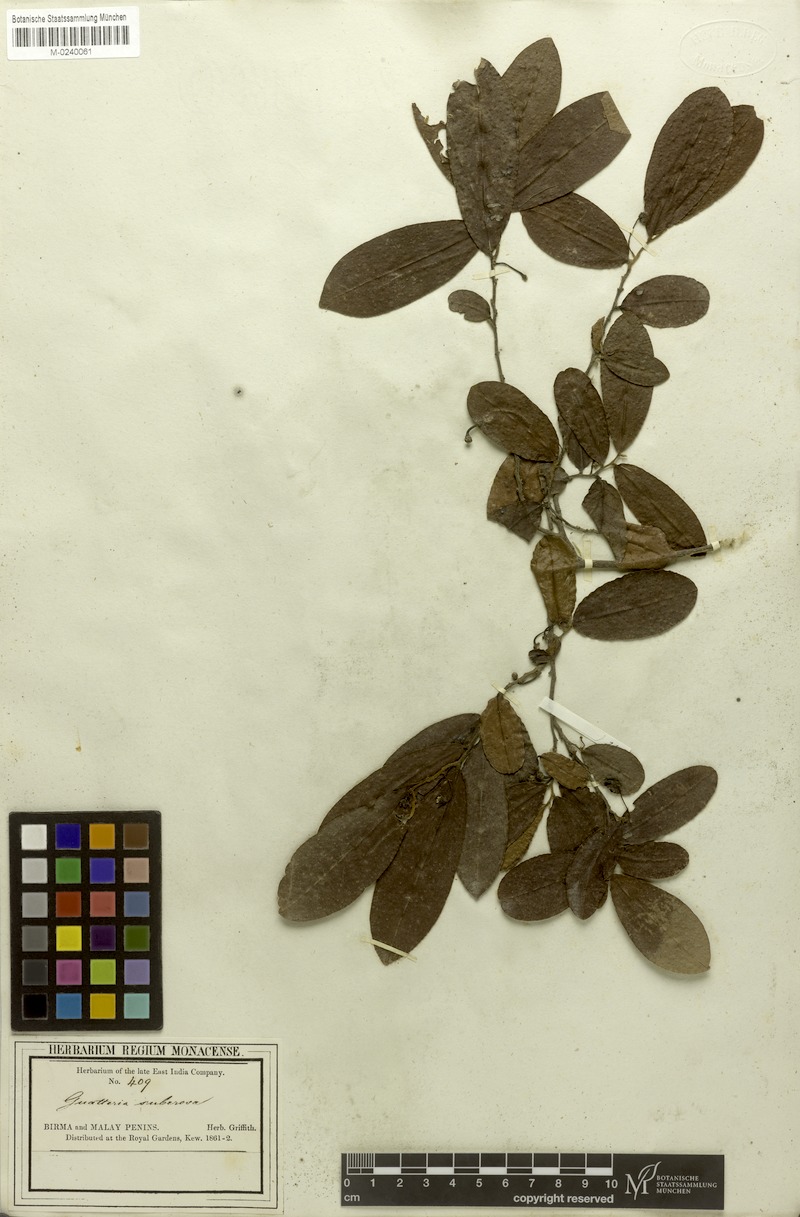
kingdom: Plantae
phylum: Tracheophyta
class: Magnoliopsida
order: Magnoliales
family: Annonaceae
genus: Polyalthia
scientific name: Polyalthia suberosa
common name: Polyalthia plant
